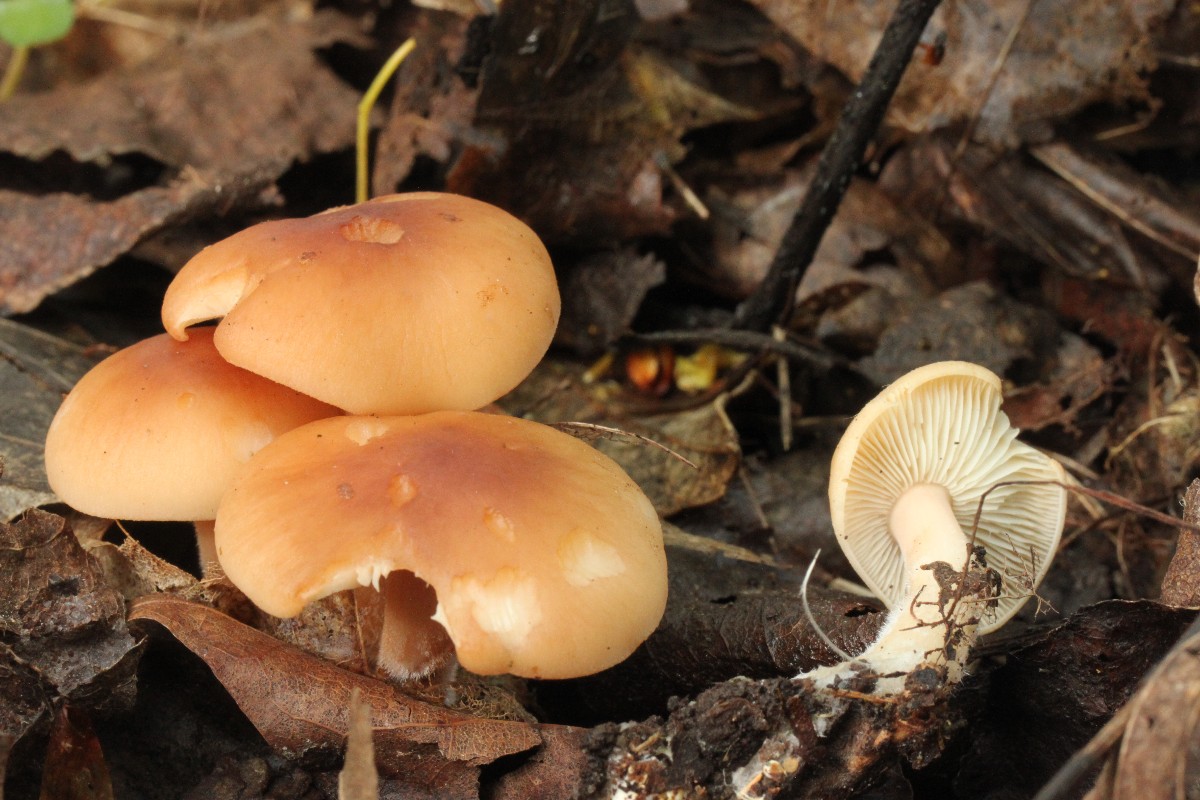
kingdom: Fungi
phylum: Basidiomycota
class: Agaricomycetes
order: Agaricales
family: Omphalotaceae
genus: Gymnopus
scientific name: Gymnopus hariolorum
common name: hvidkåls-fladhat
